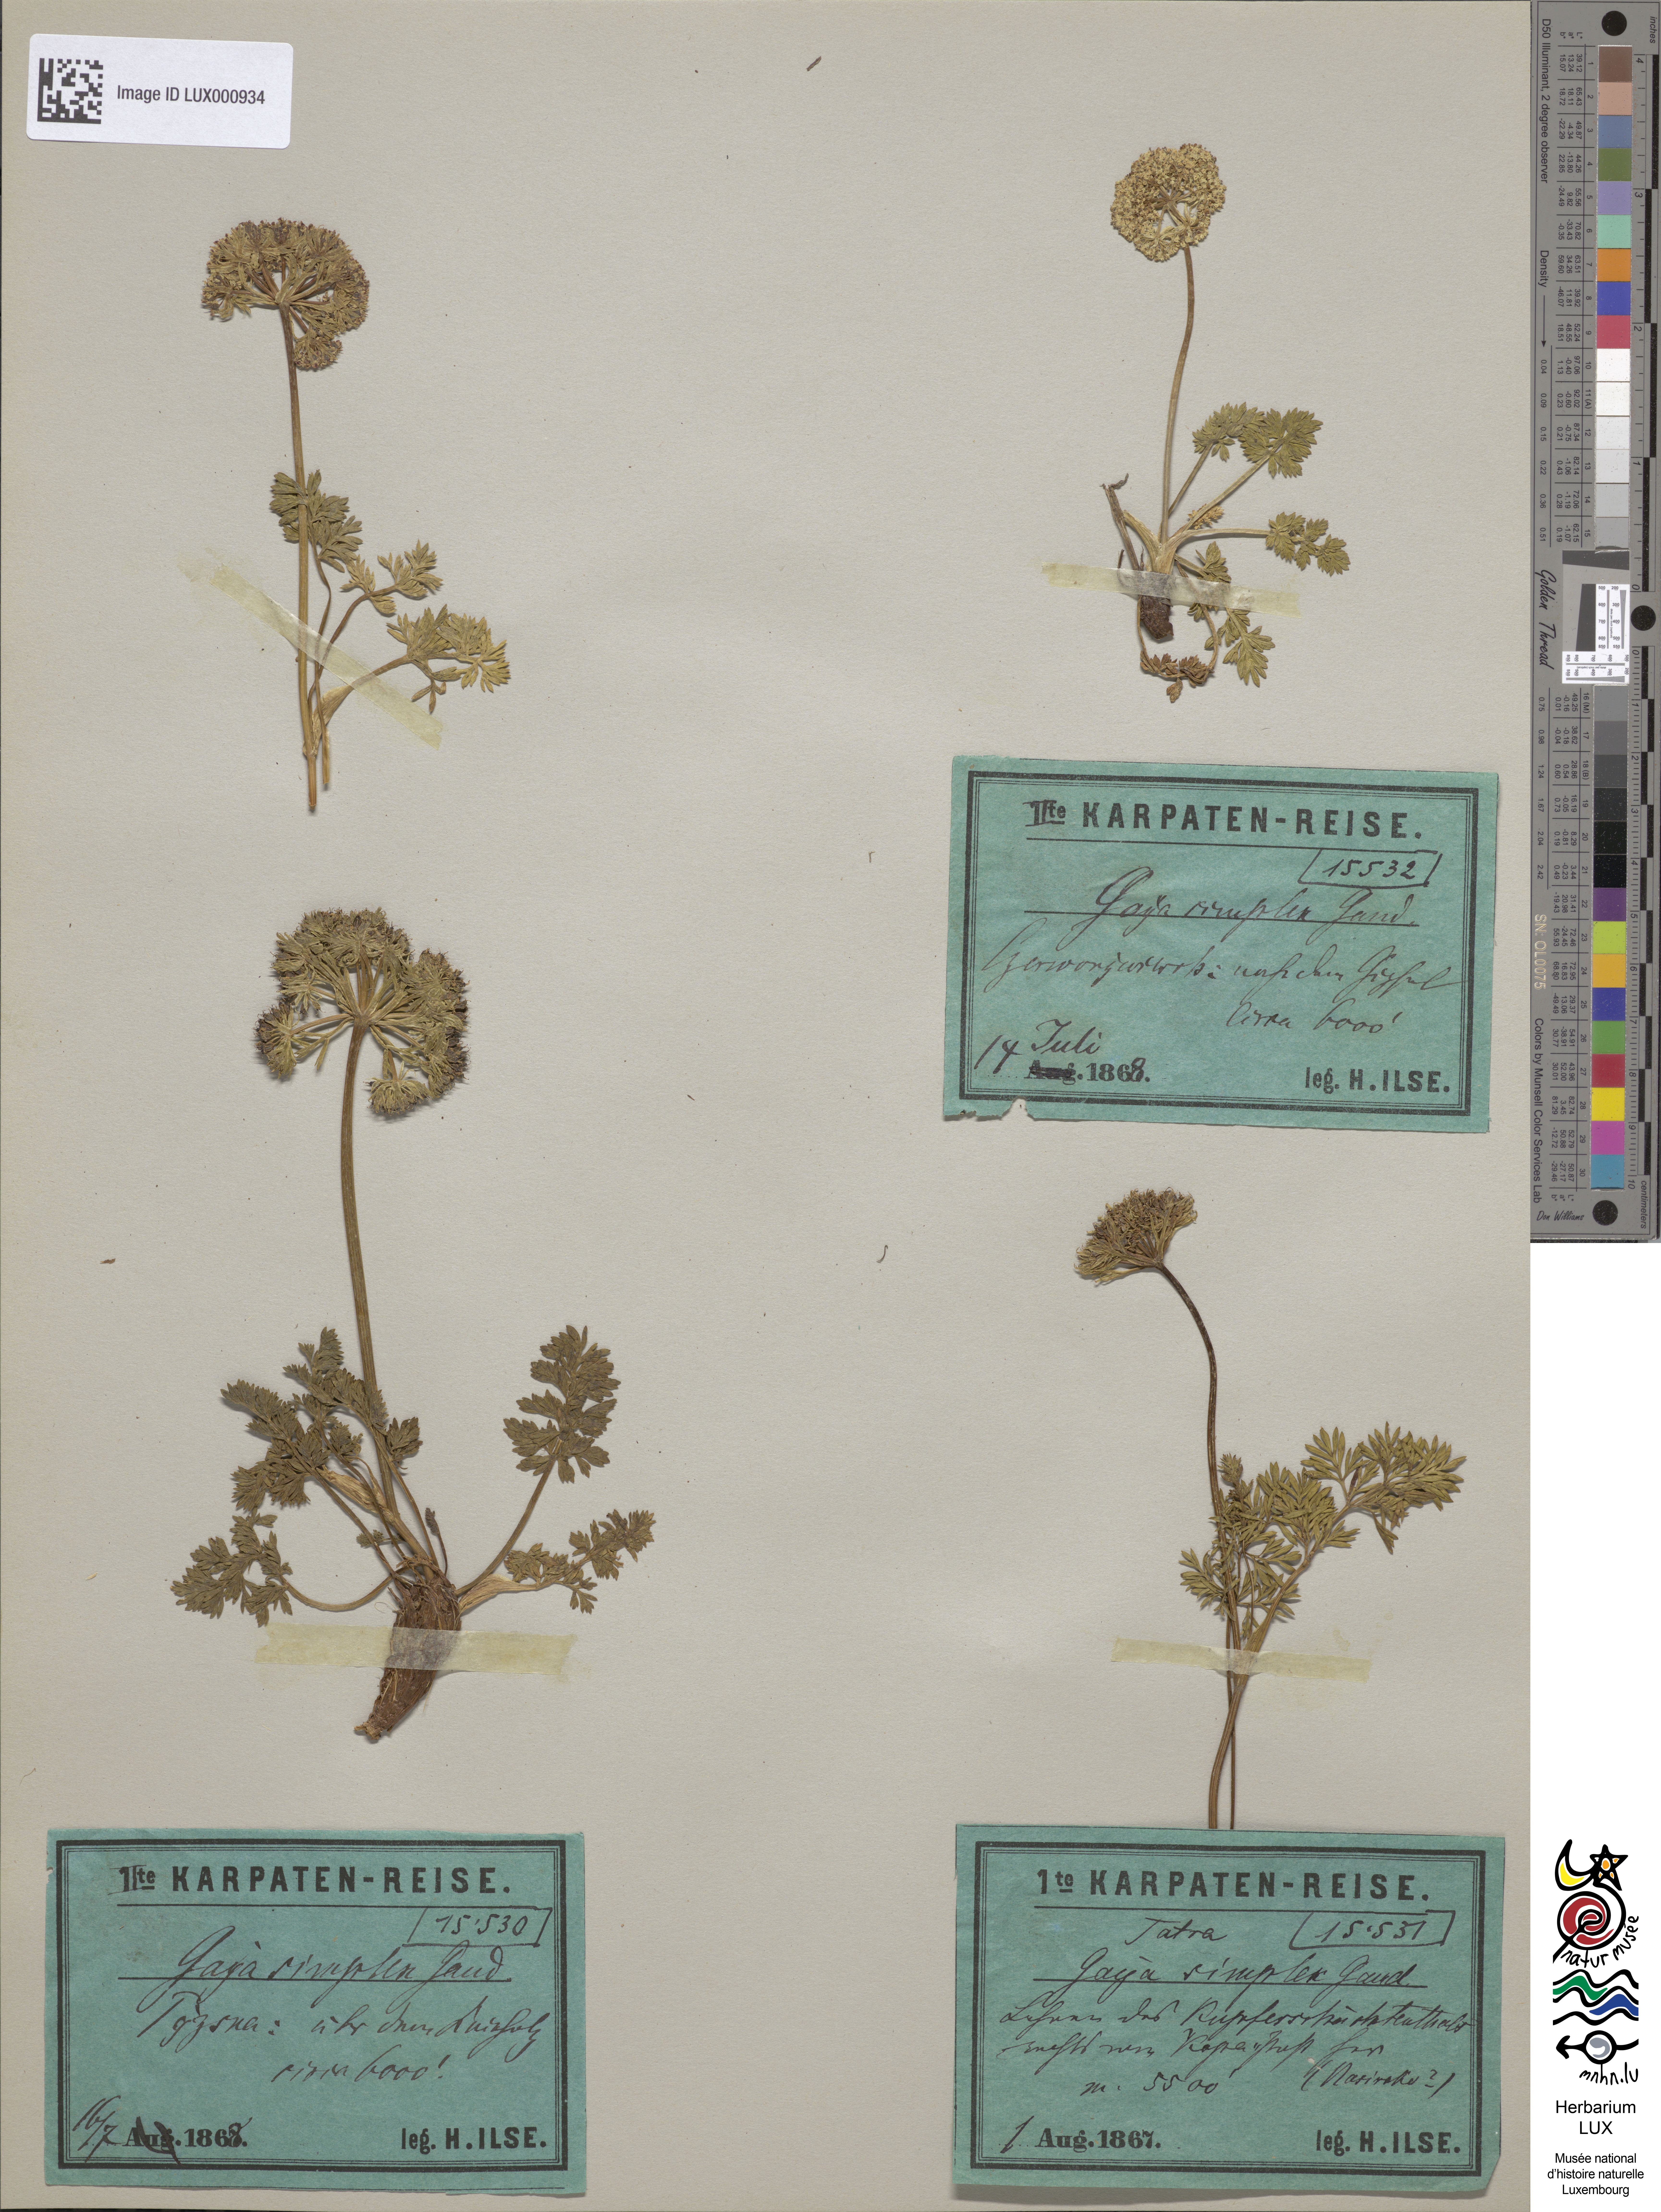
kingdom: Plantae
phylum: Tracheophyta
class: Magnoliopsida
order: Apiales
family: Apiaceae
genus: Pachypleurum
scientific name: Pachypleurum mutellinoides
